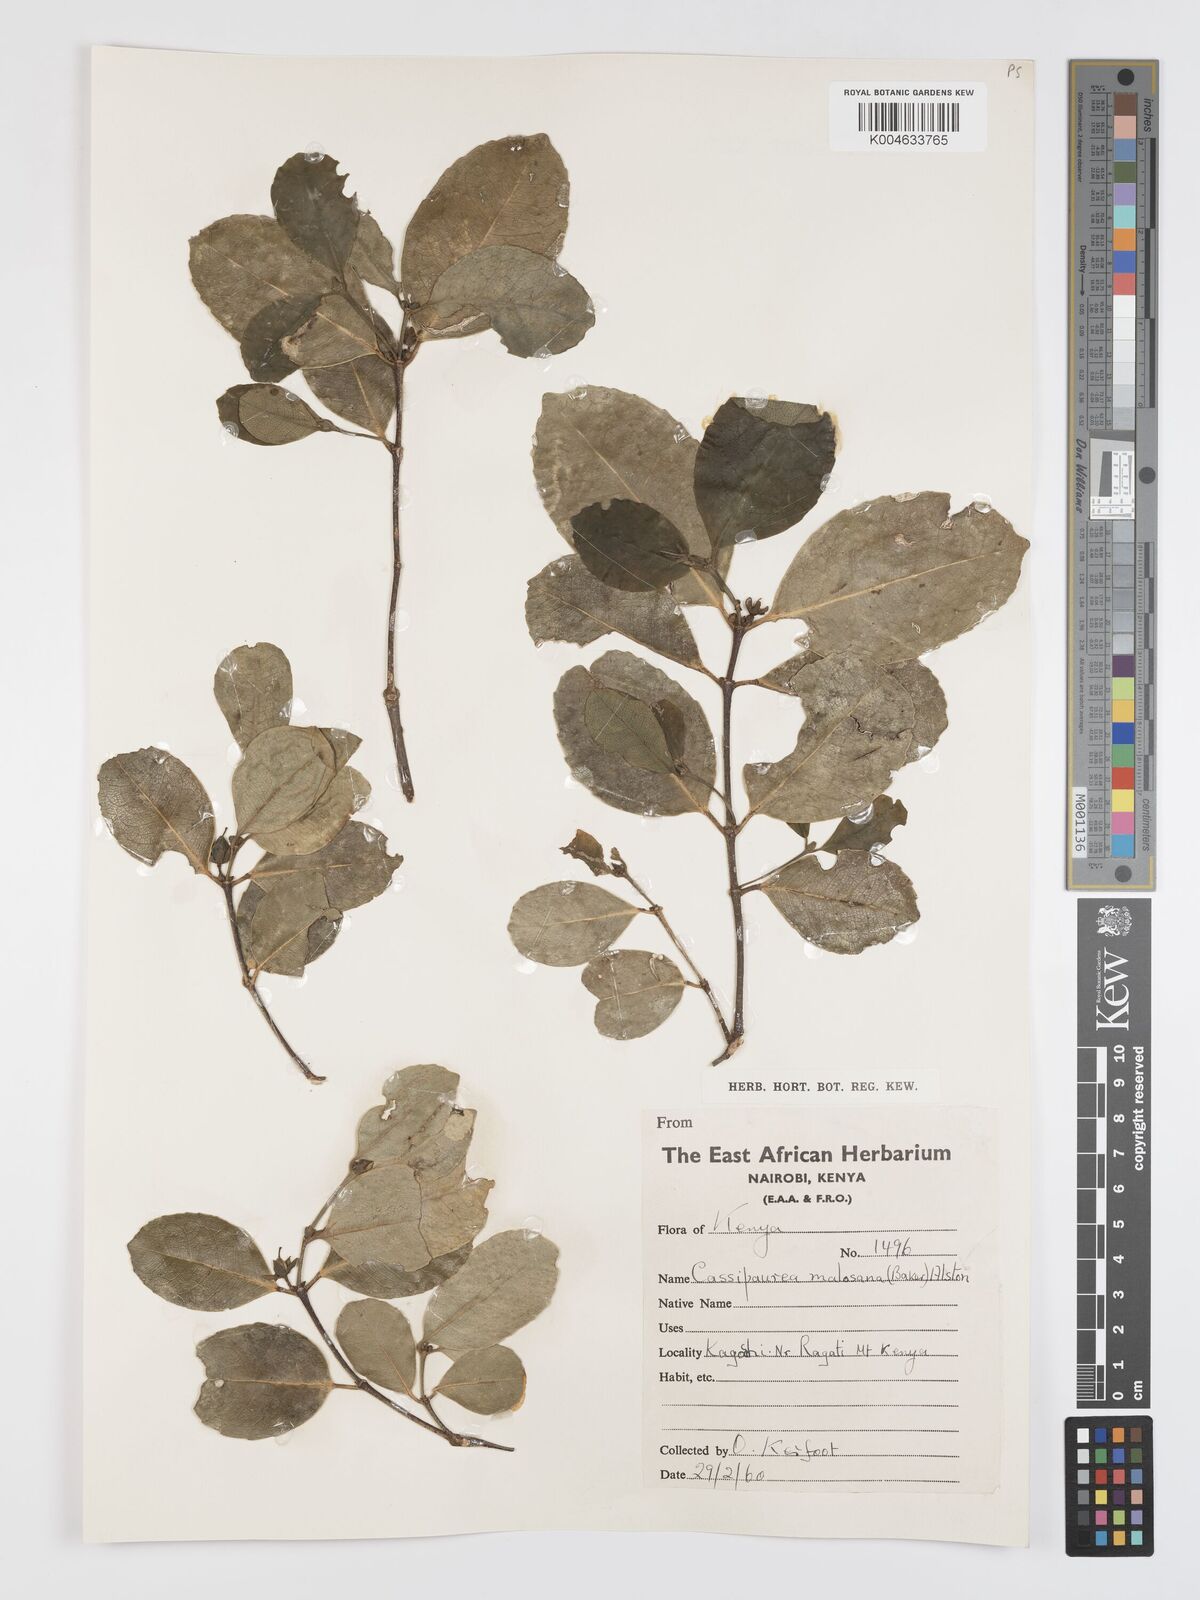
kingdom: Plantae
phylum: Tracheophyta
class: Magnoliopsida
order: Malpighiales
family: Rhizophoraceae
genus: Cassipourea
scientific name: Cassipourea malosana
